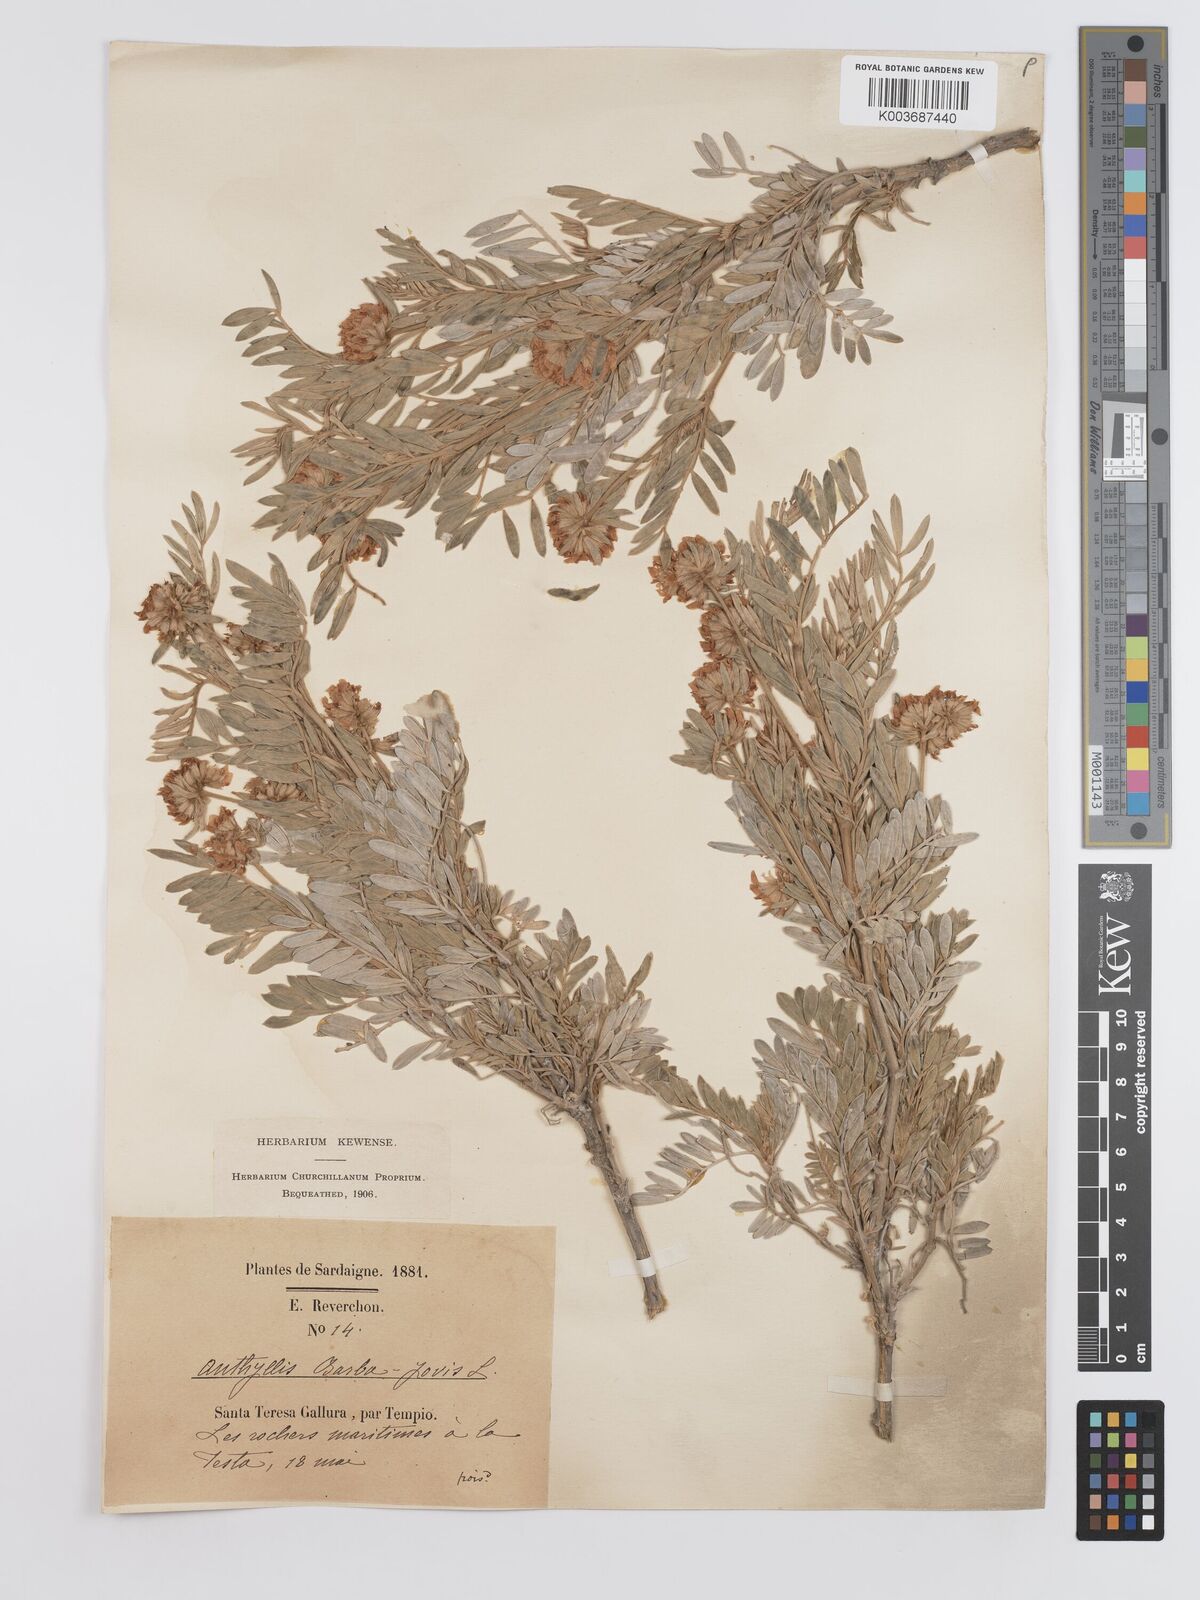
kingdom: Plantae
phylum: Tracheophyta
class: Magnoliopsida
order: Fabales
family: Fabaceae
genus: Anthyllis
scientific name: Anthyllis barba-jovis
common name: Jupiter's-beard
